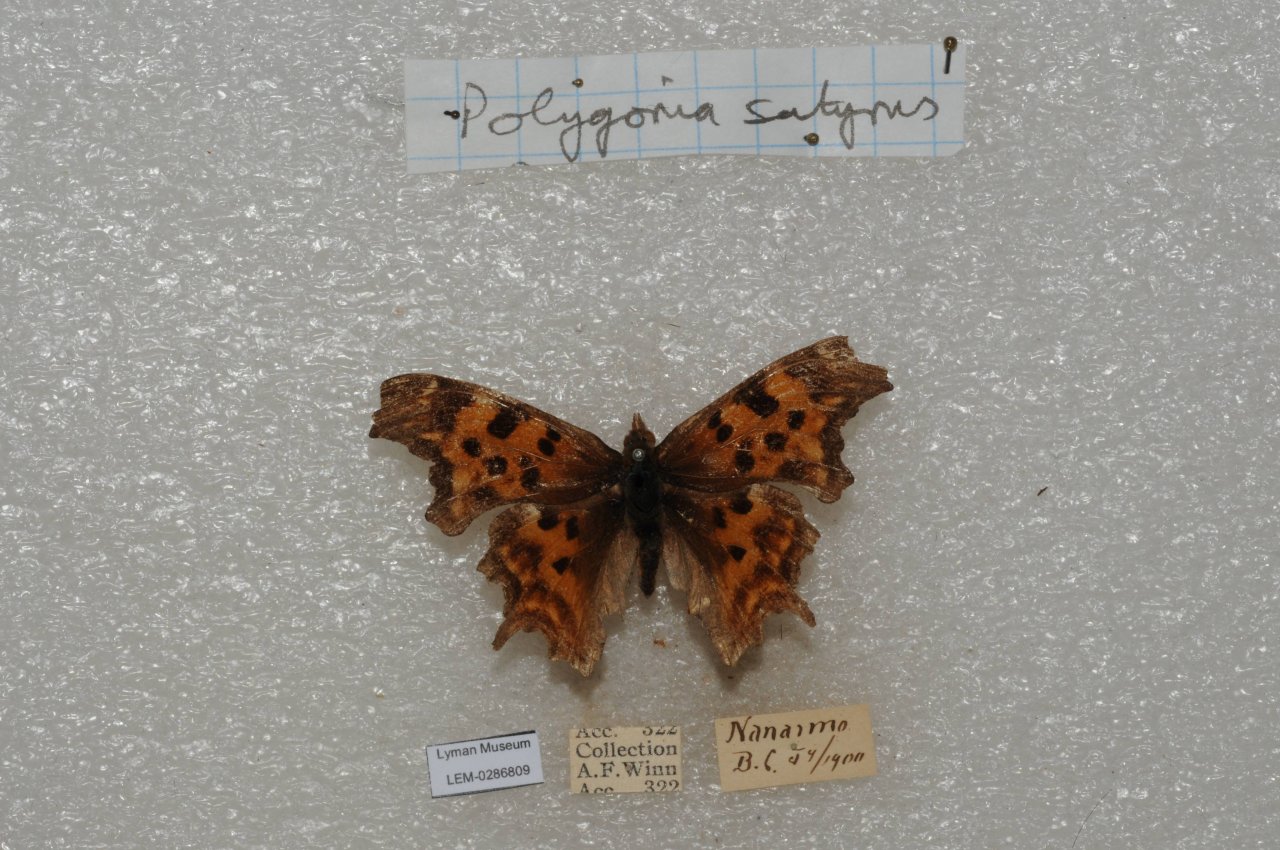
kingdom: Animalia
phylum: Arthropoda
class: Insecta
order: Lepidoptera
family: Nymphalidae
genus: Polygonia
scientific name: Polygonia satyrus
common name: Satyr Comma
